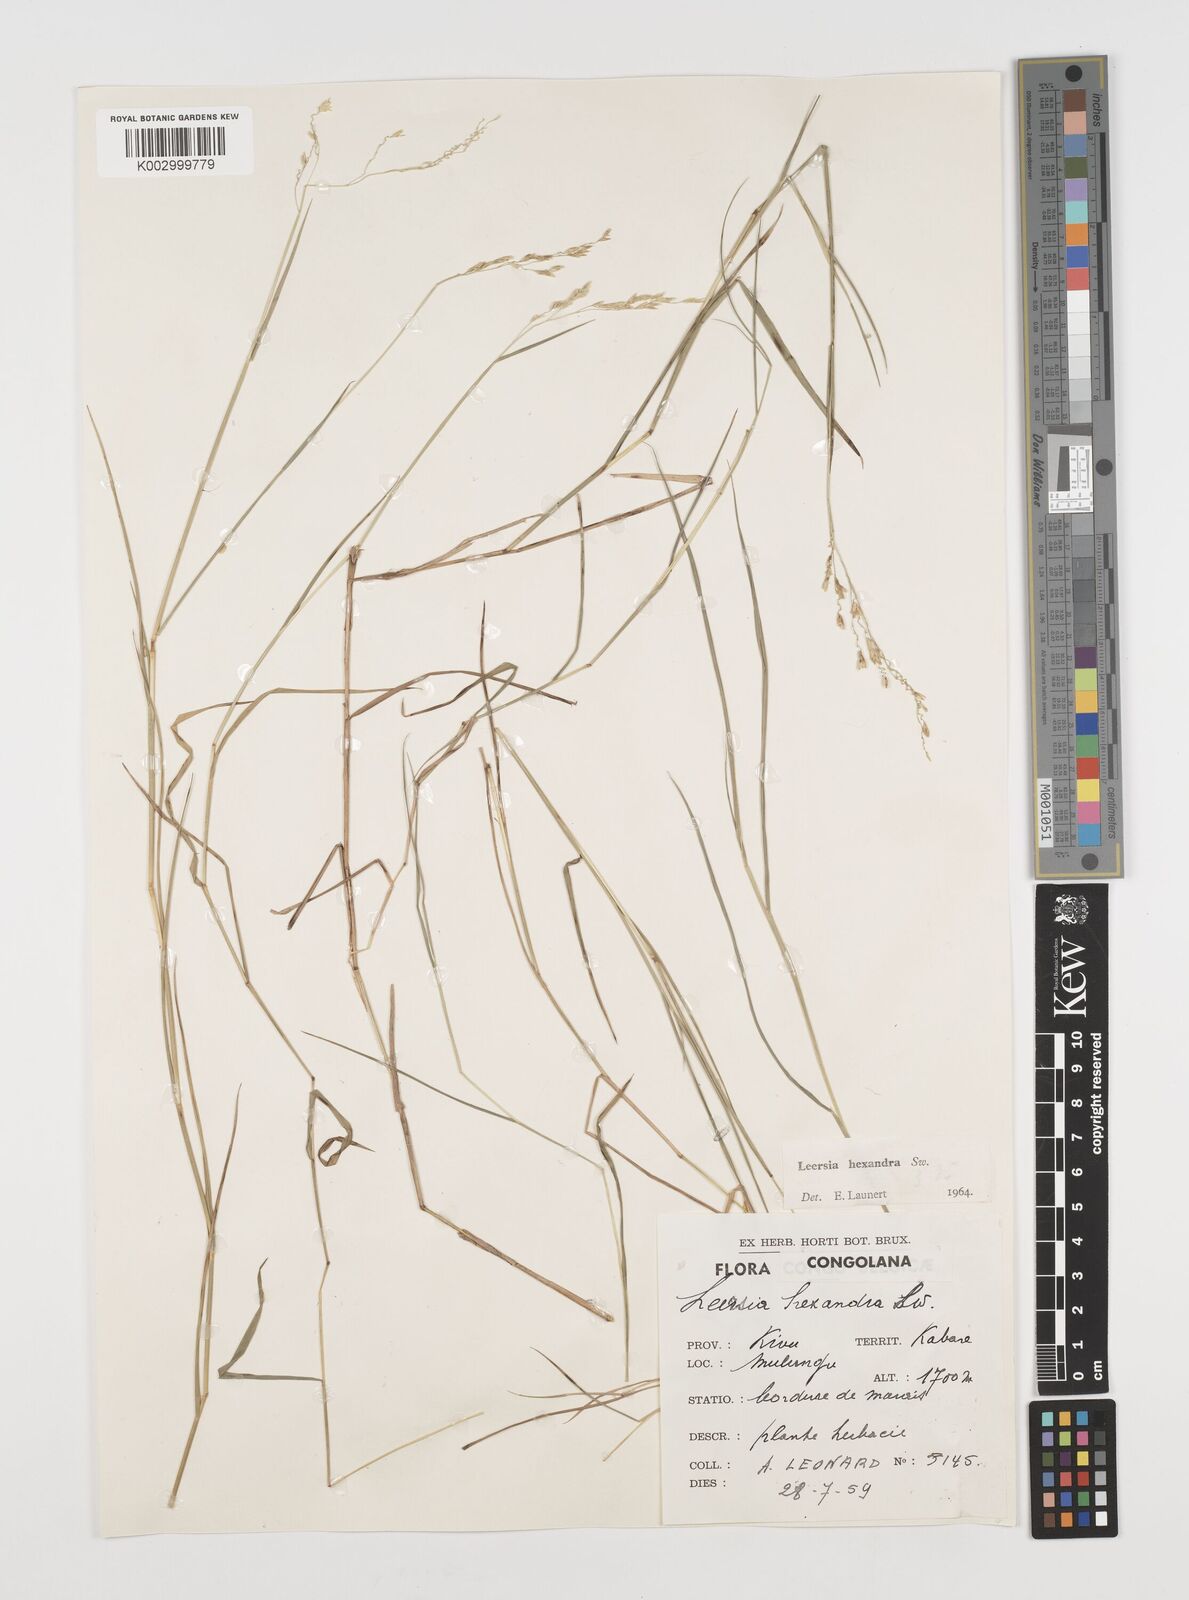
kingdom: Plantae
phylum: Tracheophyta
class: Liliopsida
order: Poales
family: Poaceae
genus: Leersia
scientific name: Leersia hexandra
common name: Southern cut grass
